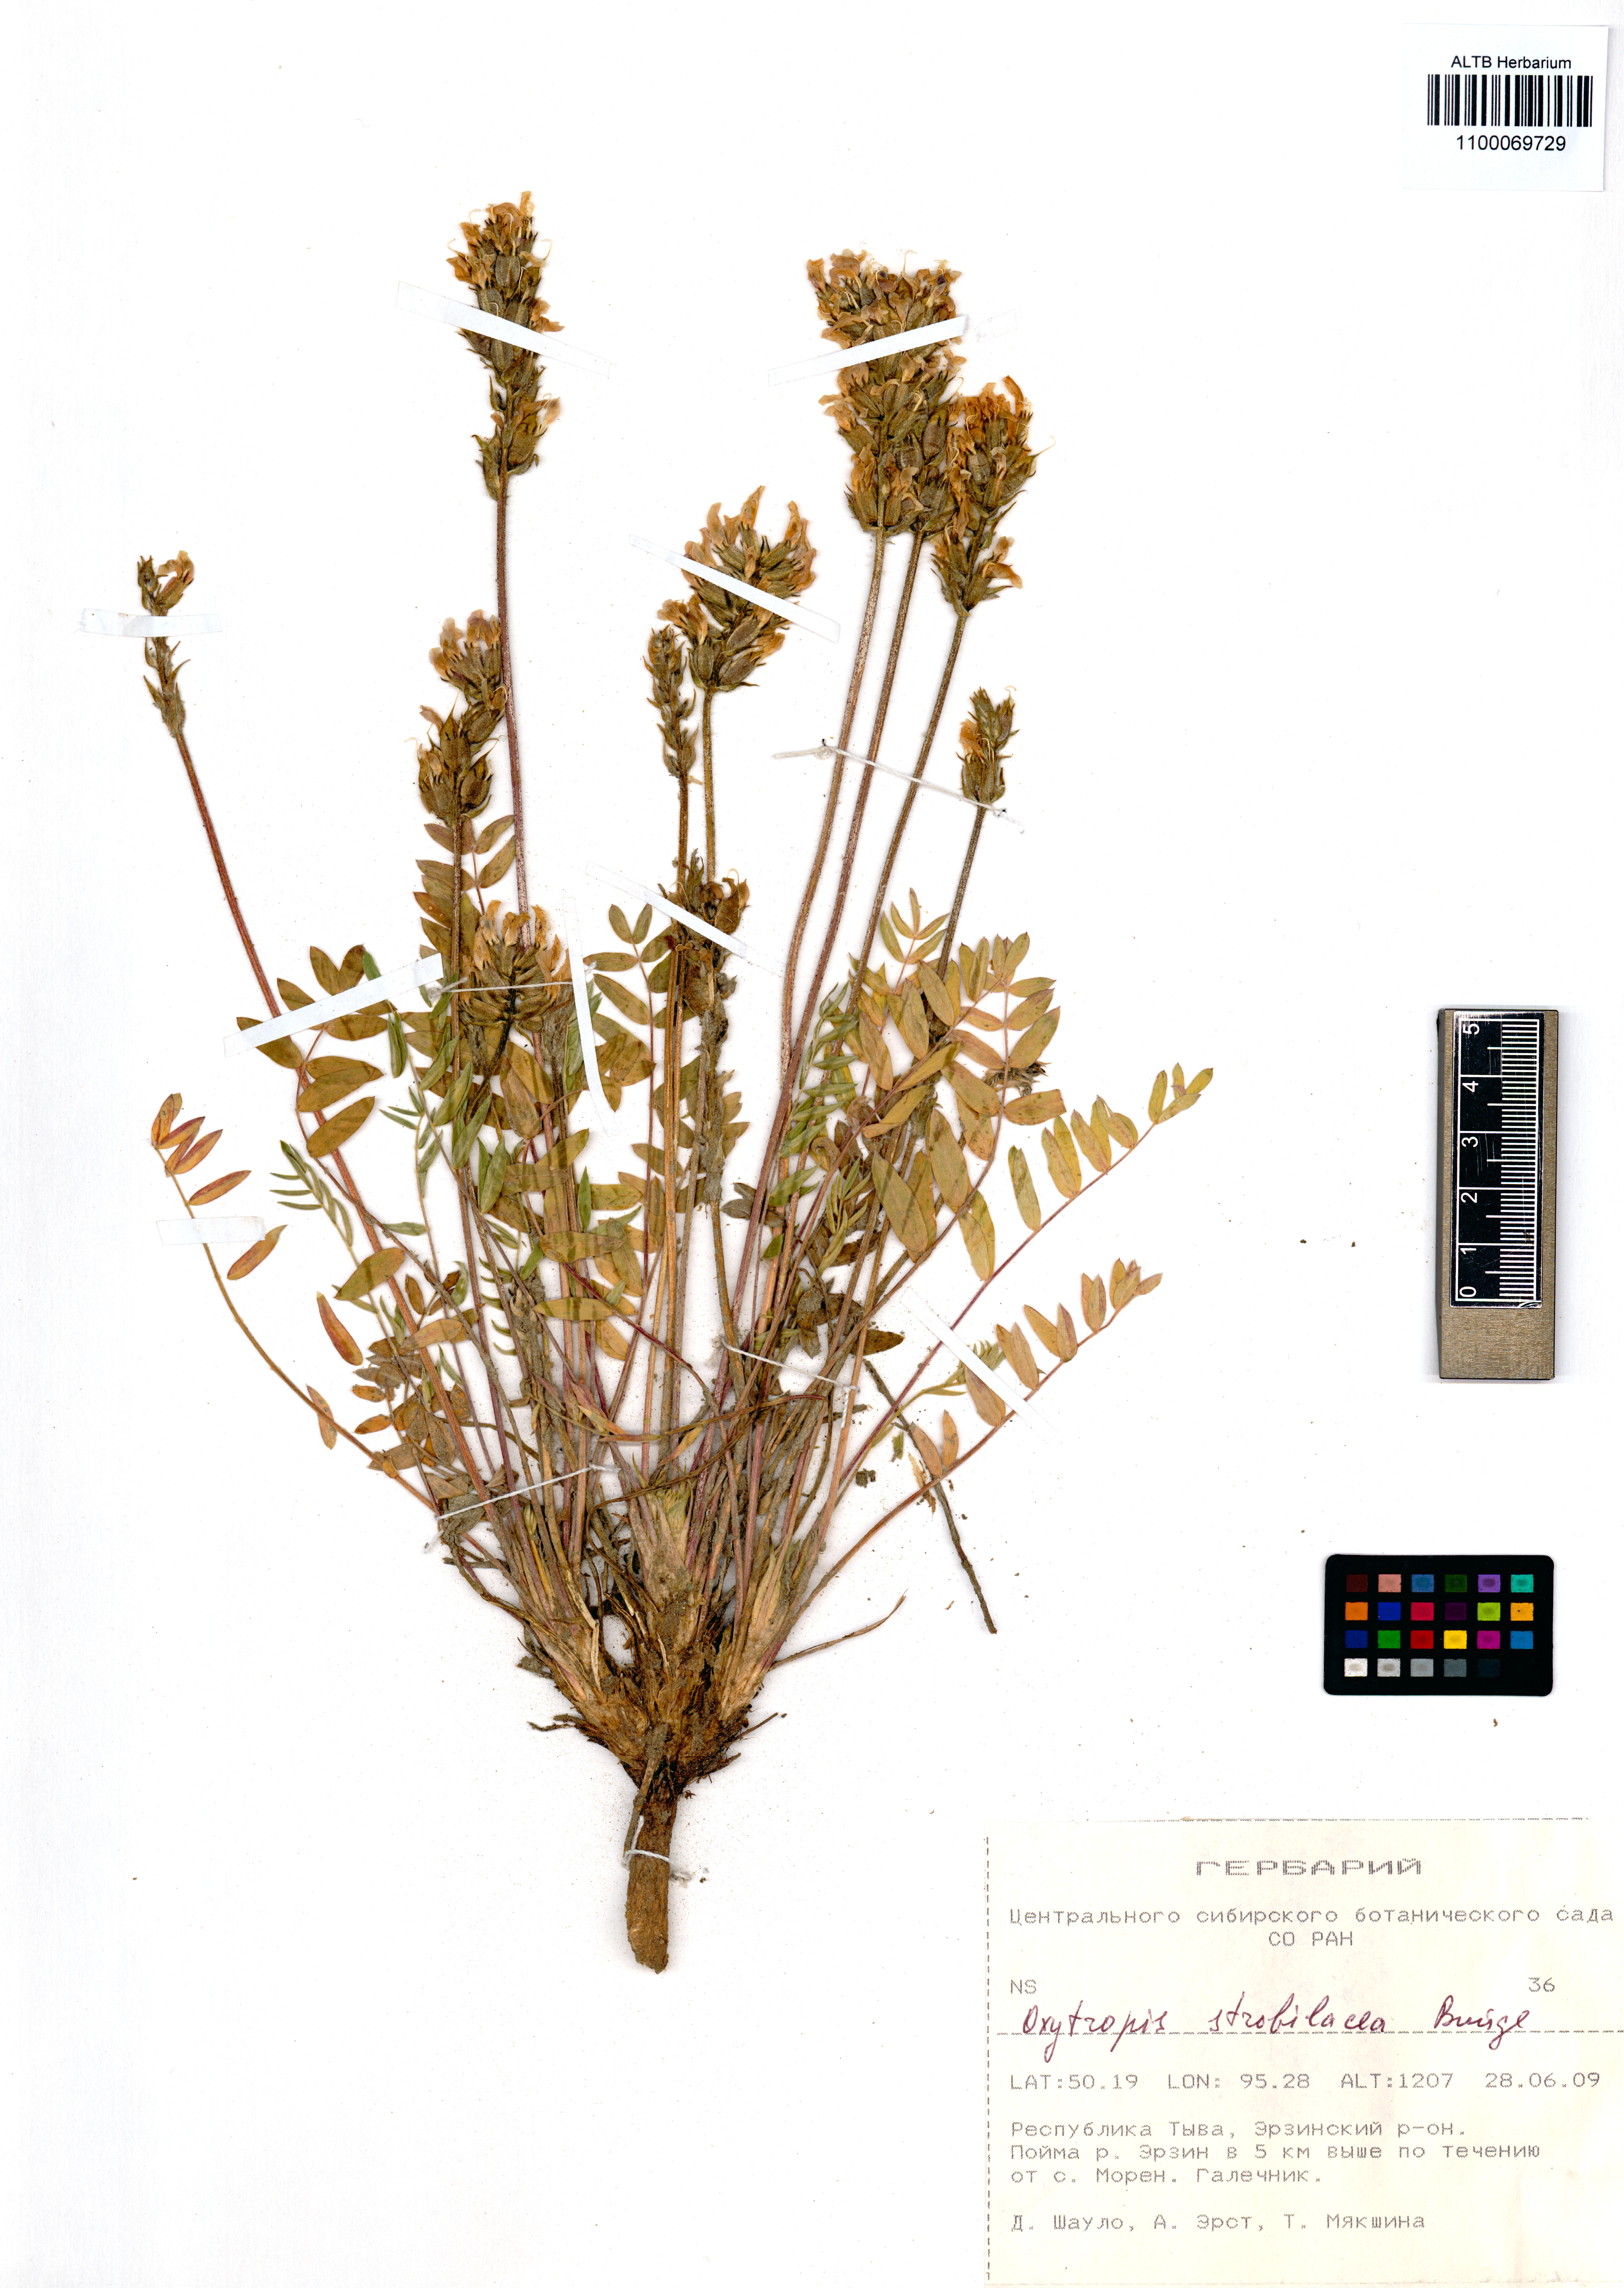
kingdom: Plantae
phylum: Tracheophyta
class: Magnoliopsida
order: Fabales
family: Fabaceae
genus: Oxytropis
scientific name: Oxytropis strobilacea
